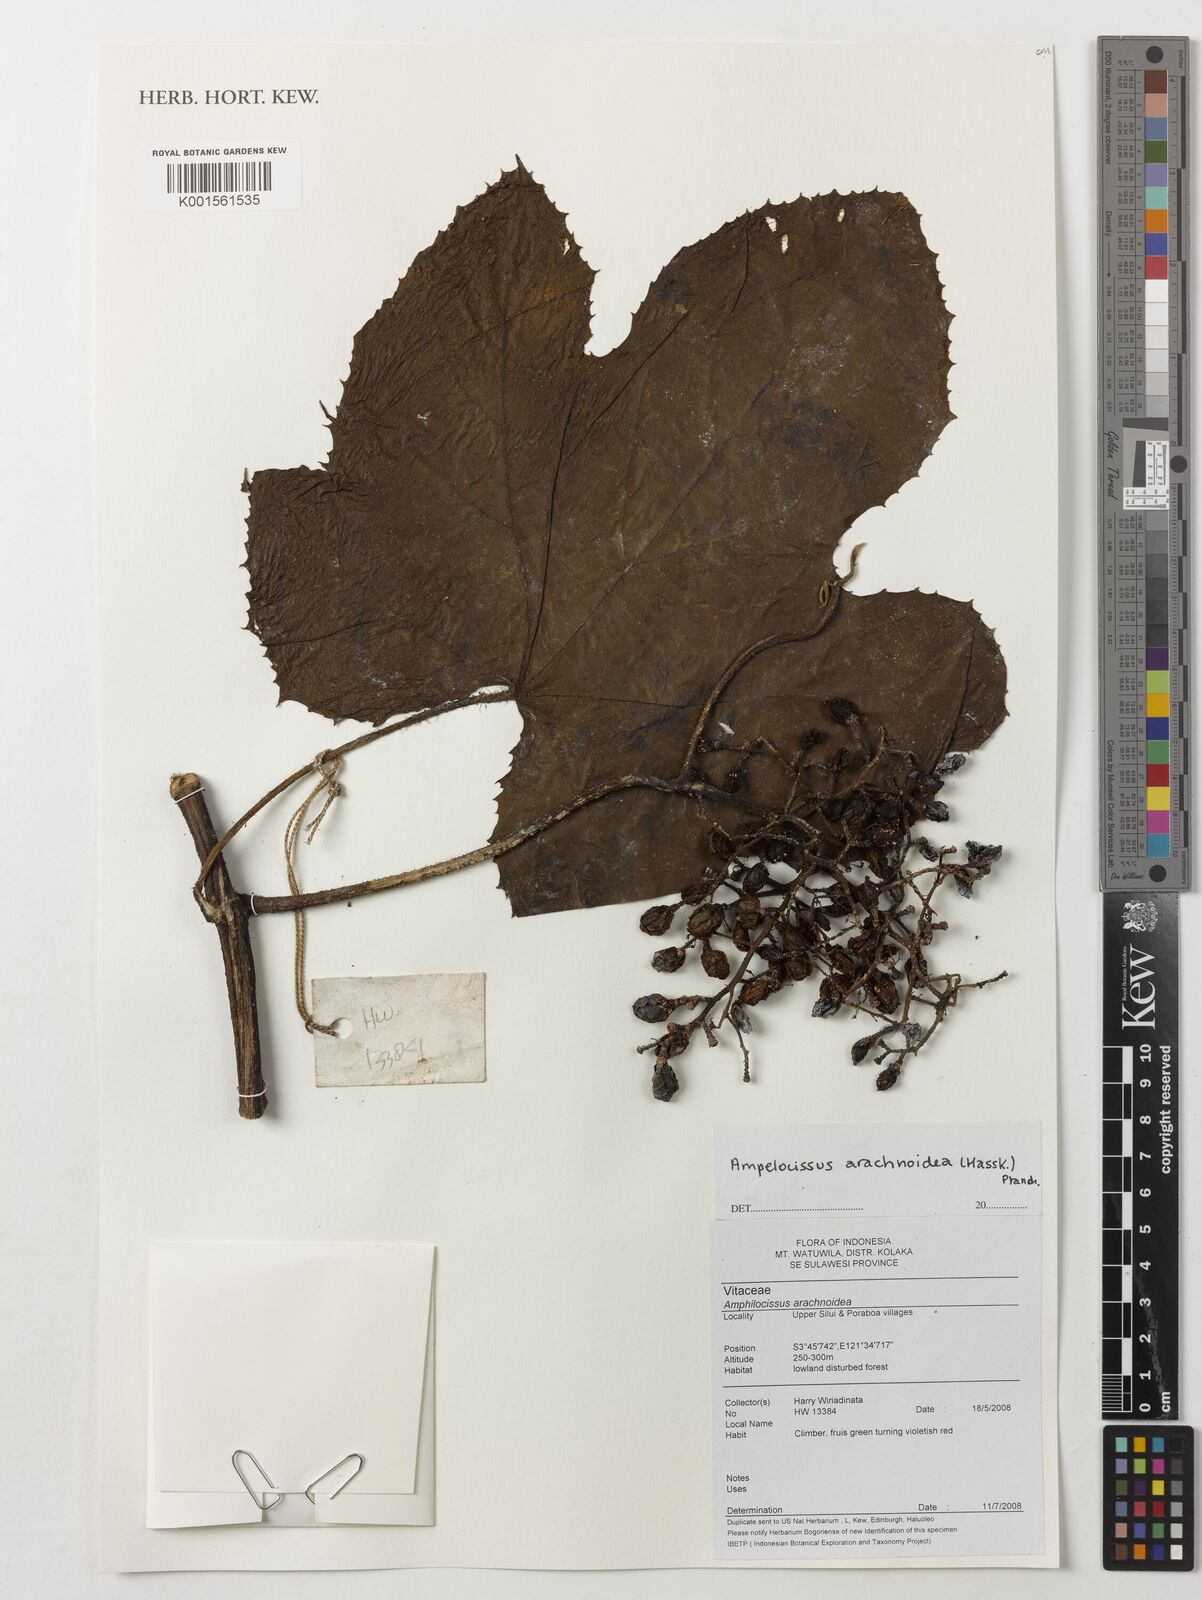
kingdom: Plantae
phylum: Tracheophyta
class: Magnoliopsida
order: Vitales
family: Vitaceae
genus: Ampelocissus
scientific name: Ampelocissus arachnoidea
